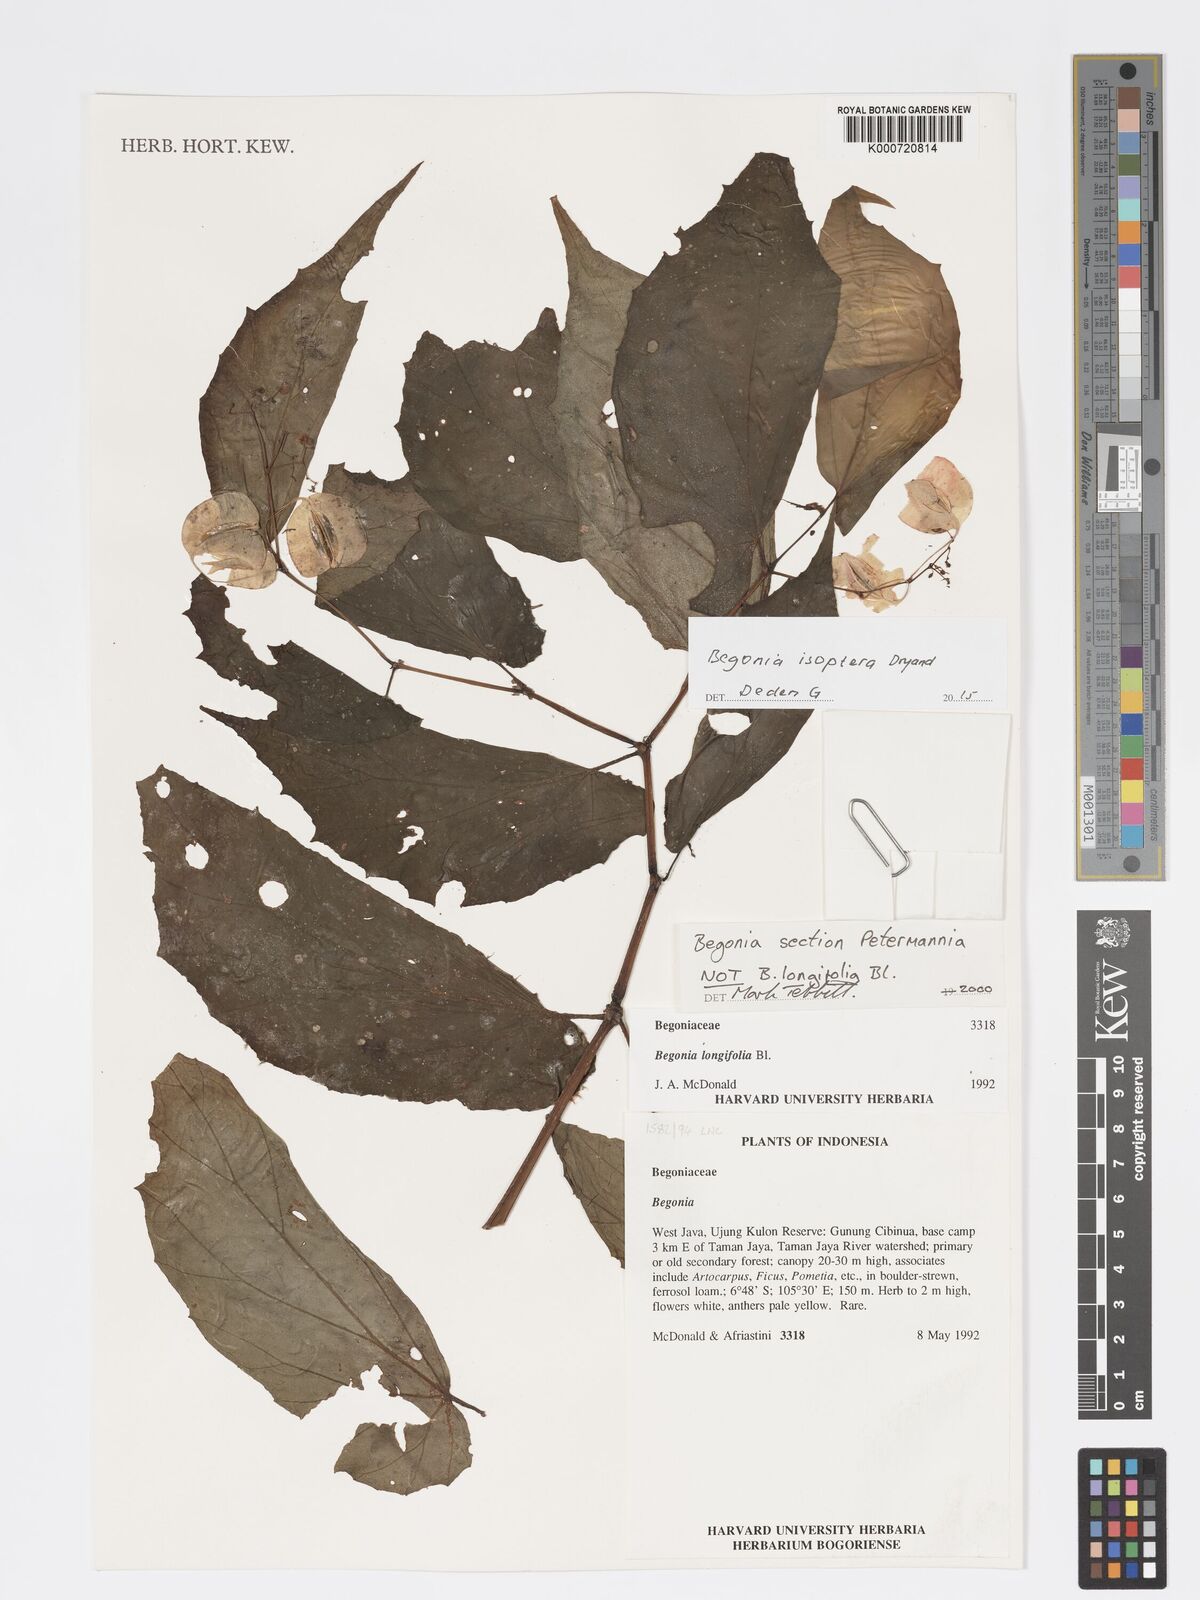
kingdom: Plantae
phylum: Tracheophyta
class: Magnoliopsida
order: Cucurbitales
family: Begoniaceae
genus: Begonia
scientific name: Begonia
